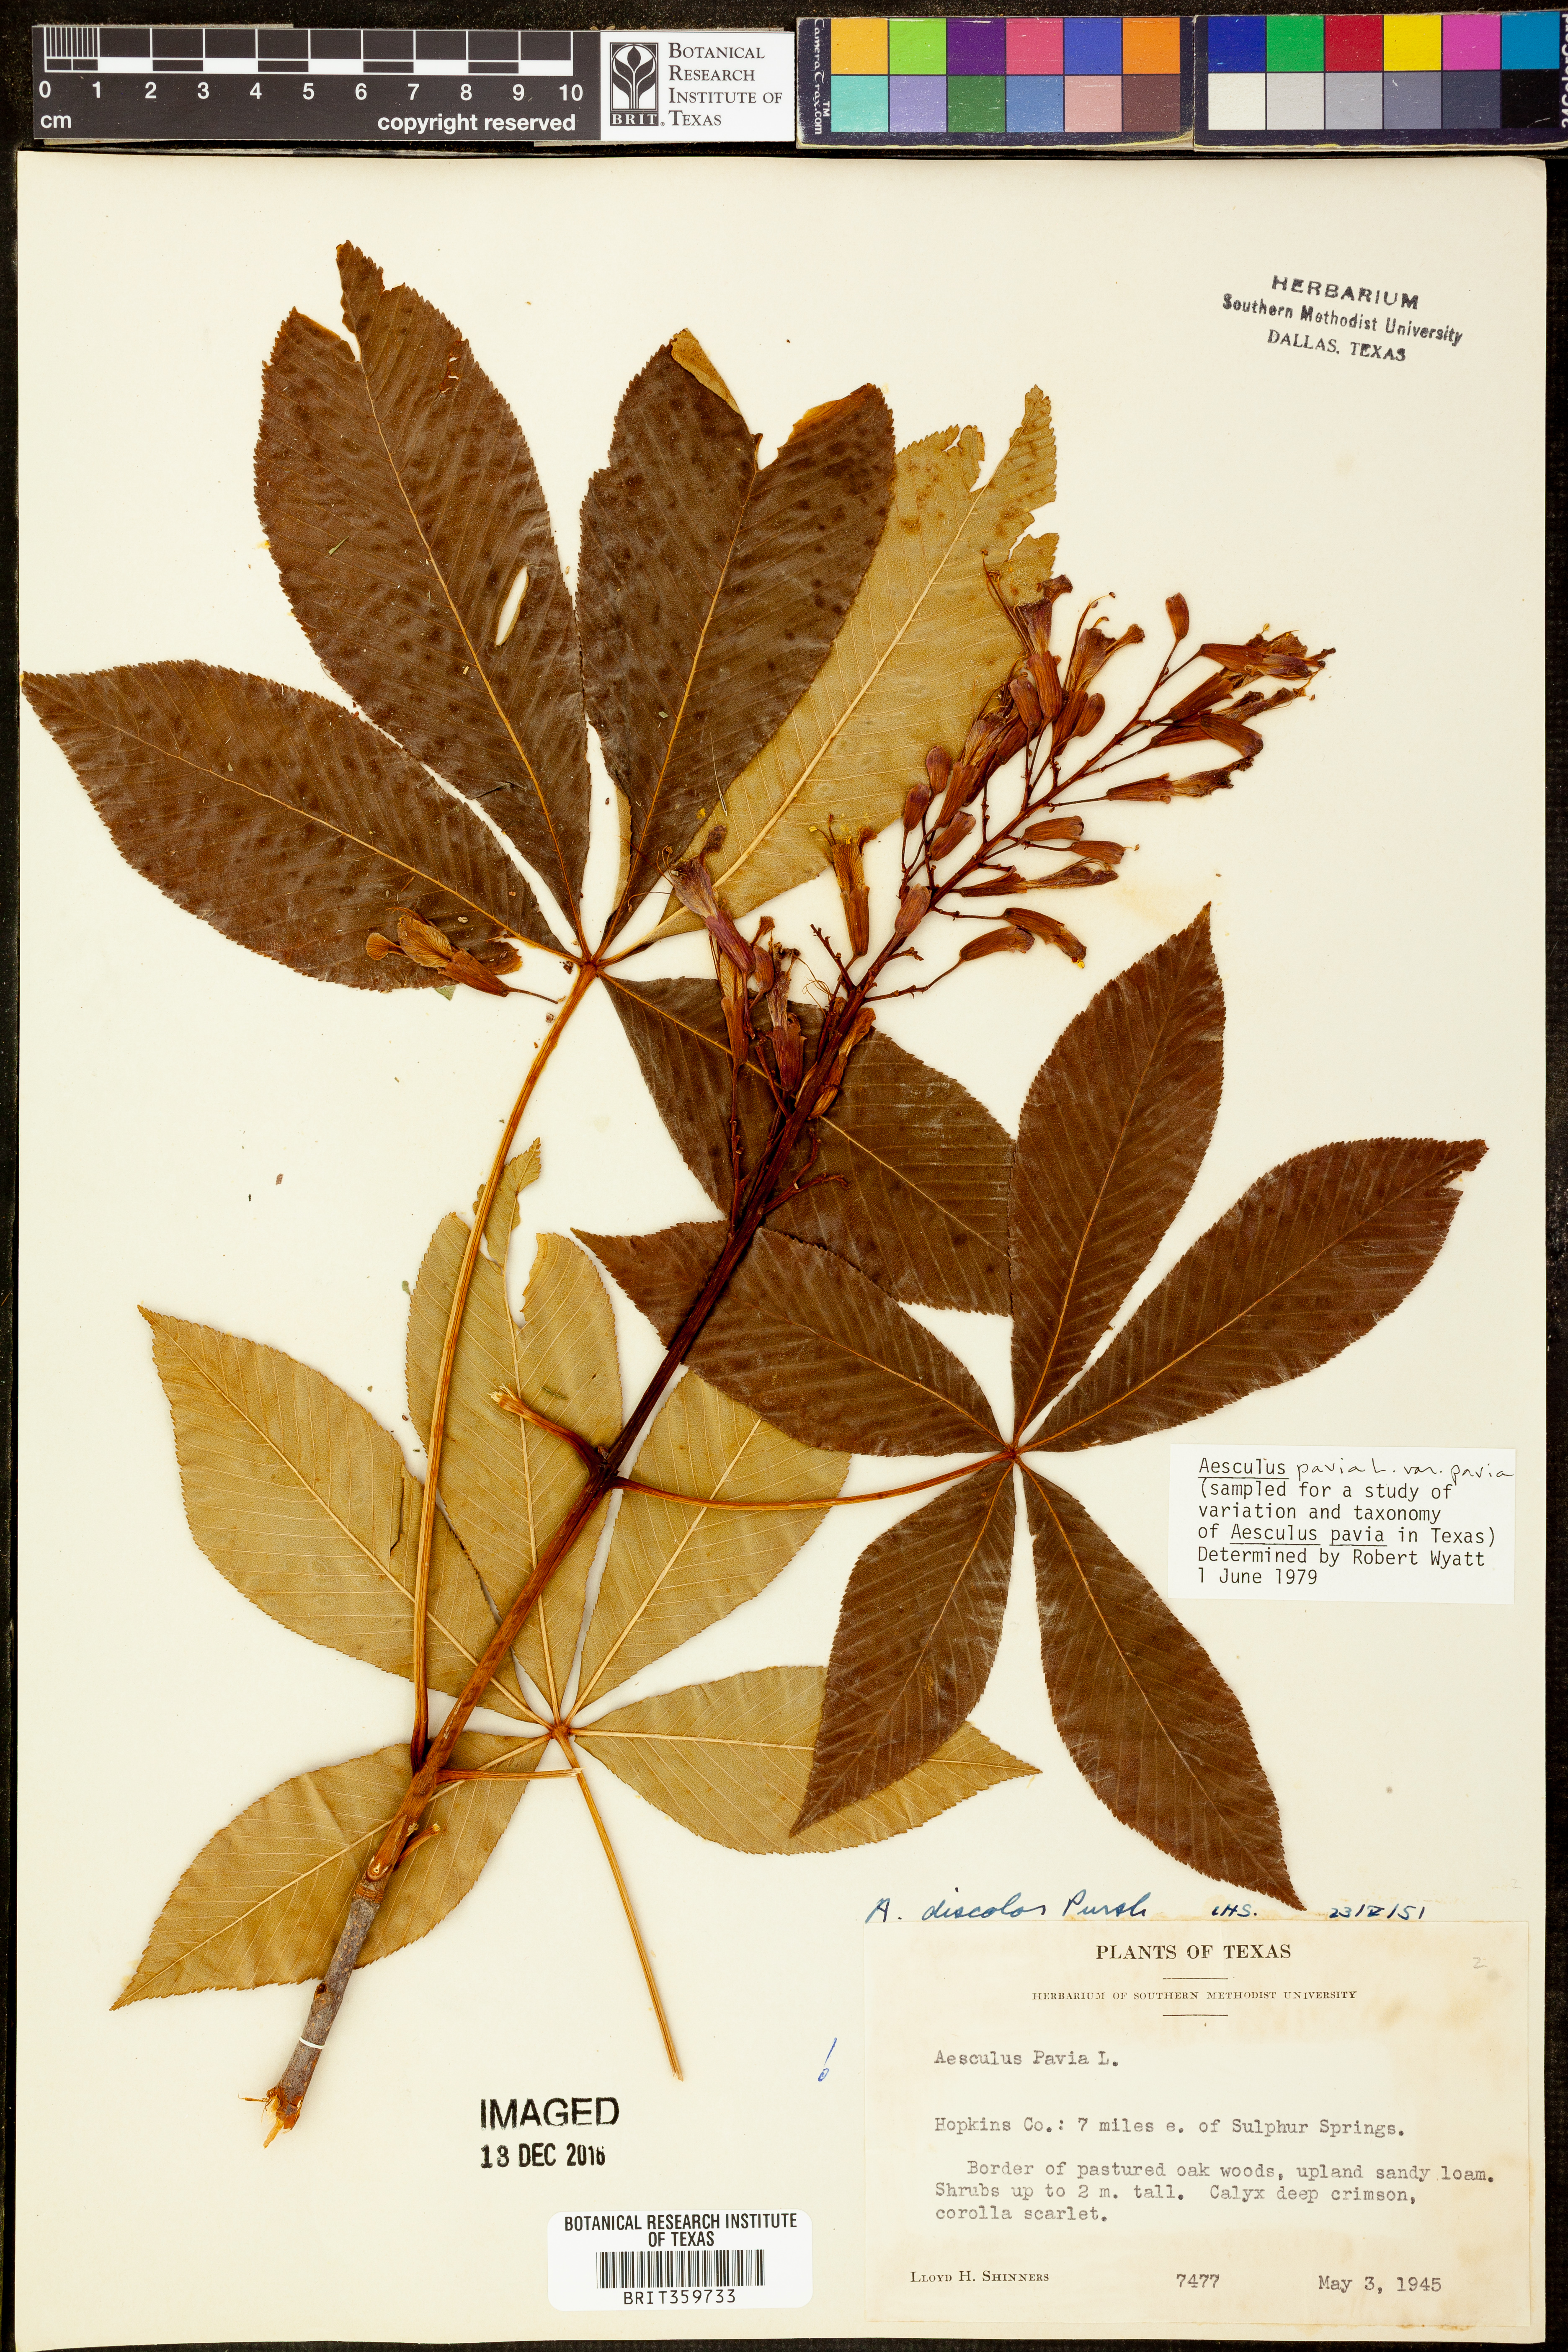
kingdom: Plantae
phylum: Tracheophyta
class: Magnoliopsida
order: Sapindales
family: Sapindaceae
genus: Aesculus
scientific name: Aesculus pavia
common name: Red buckeye
